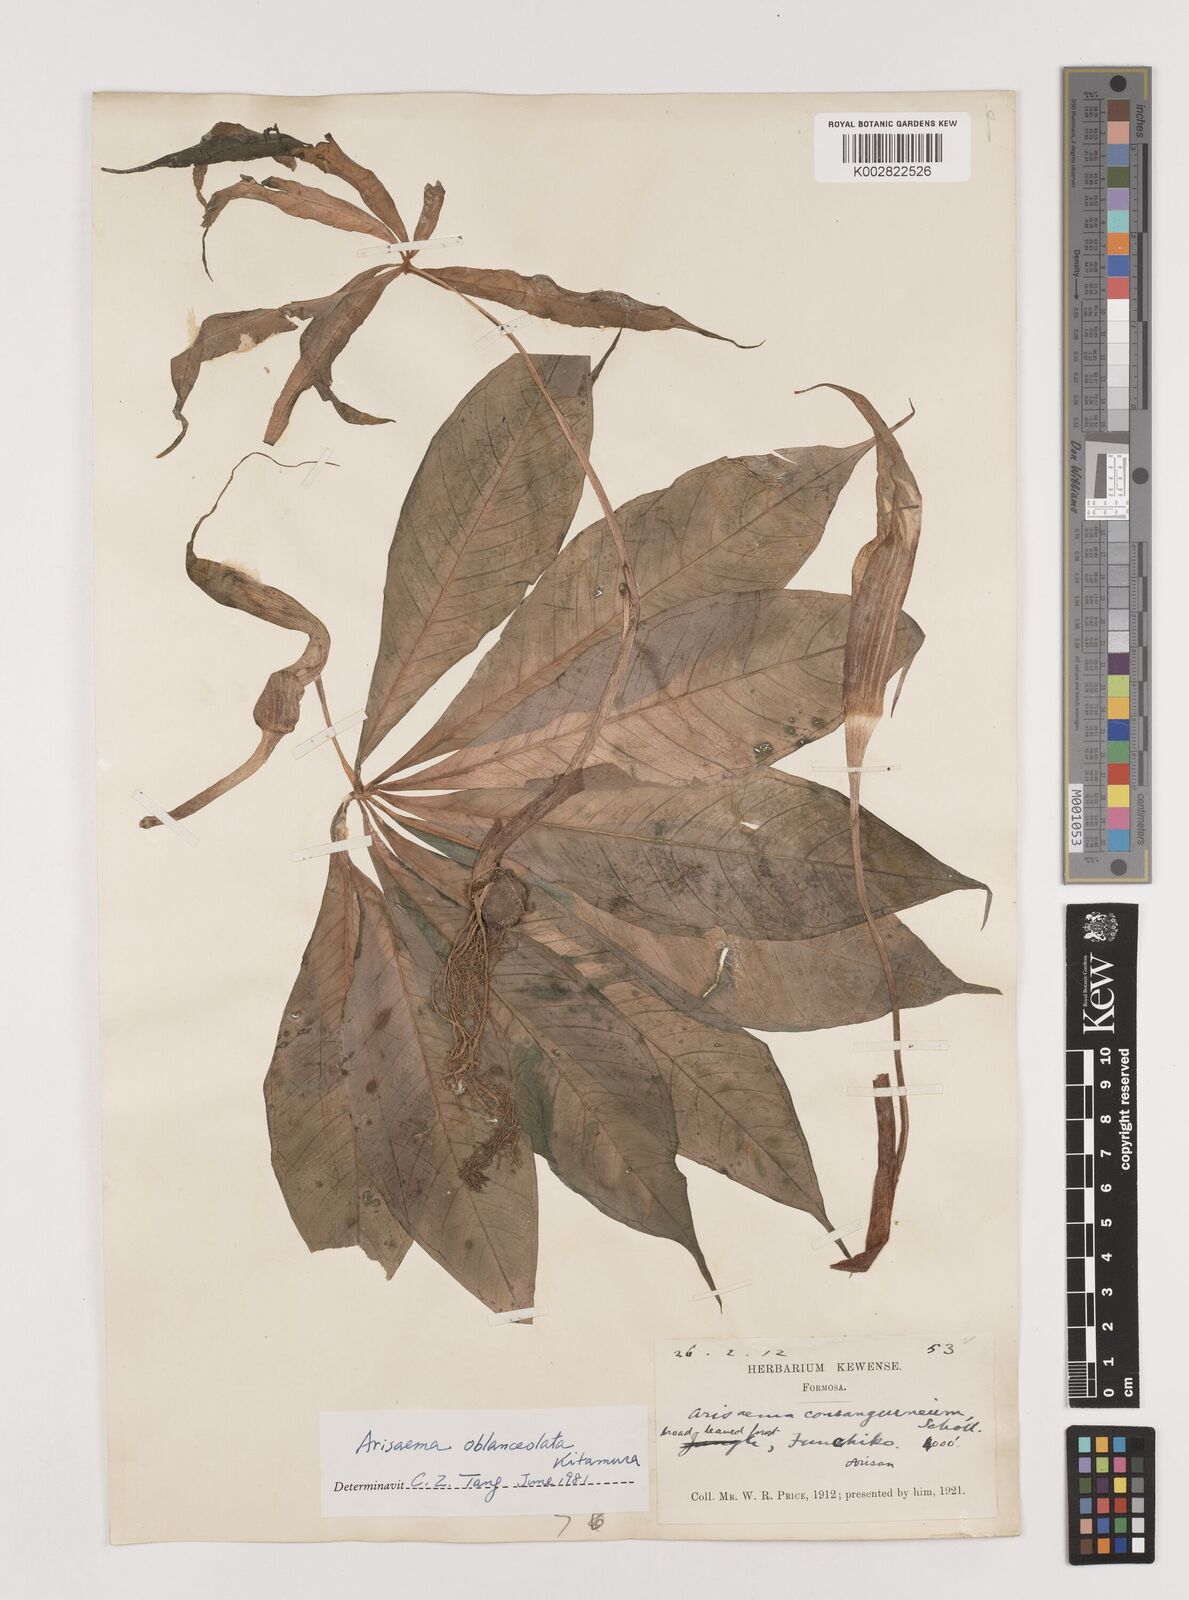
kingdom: Plantae
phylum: Tracheophyta
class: Liliopsida
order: Alismatales
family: Araceae
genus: Arisaema
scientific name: Arisaema formosanum
